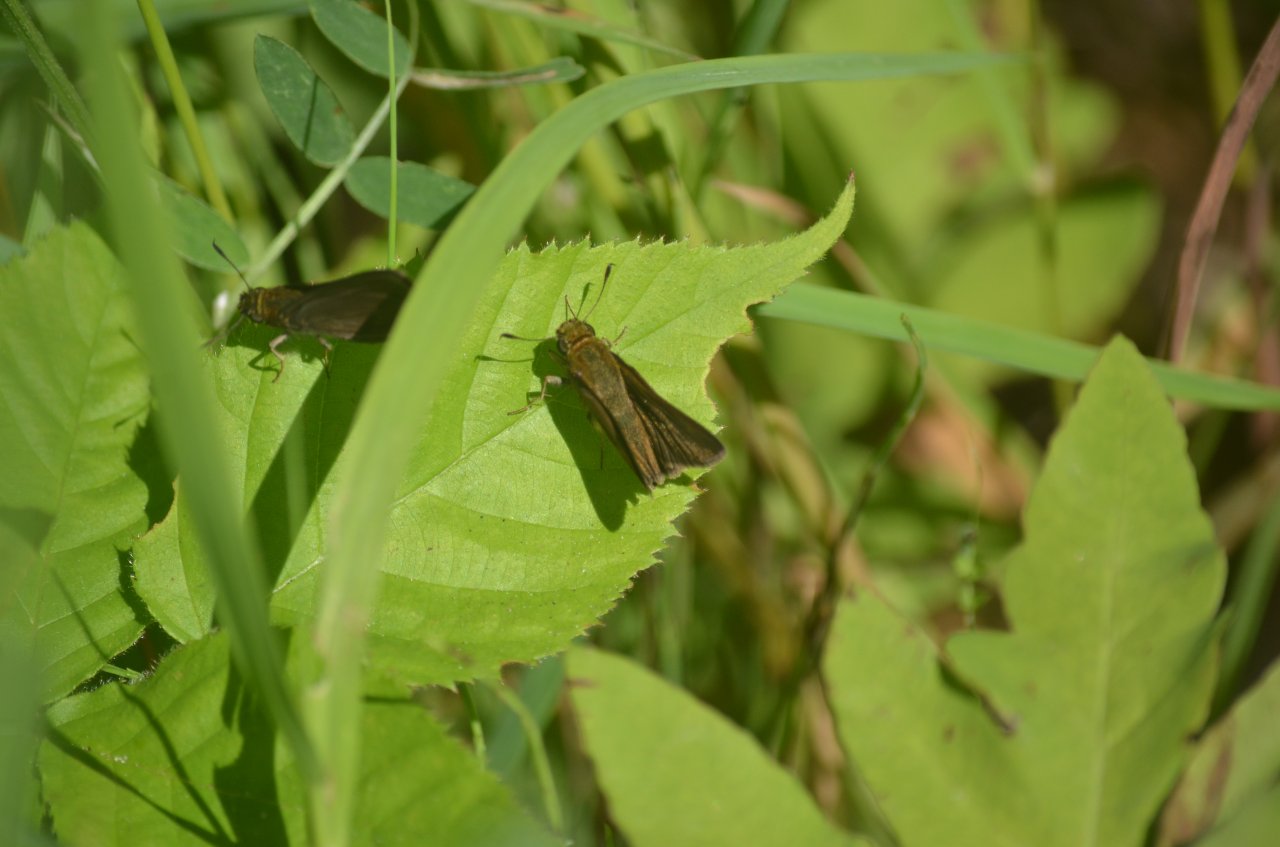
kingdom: Animalia
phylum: Arthropoda
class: Insecta
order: Lepidoptera
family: Hesperiidae
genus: Euphyes
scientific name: Euphyes vestris
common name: Dun Skipper
